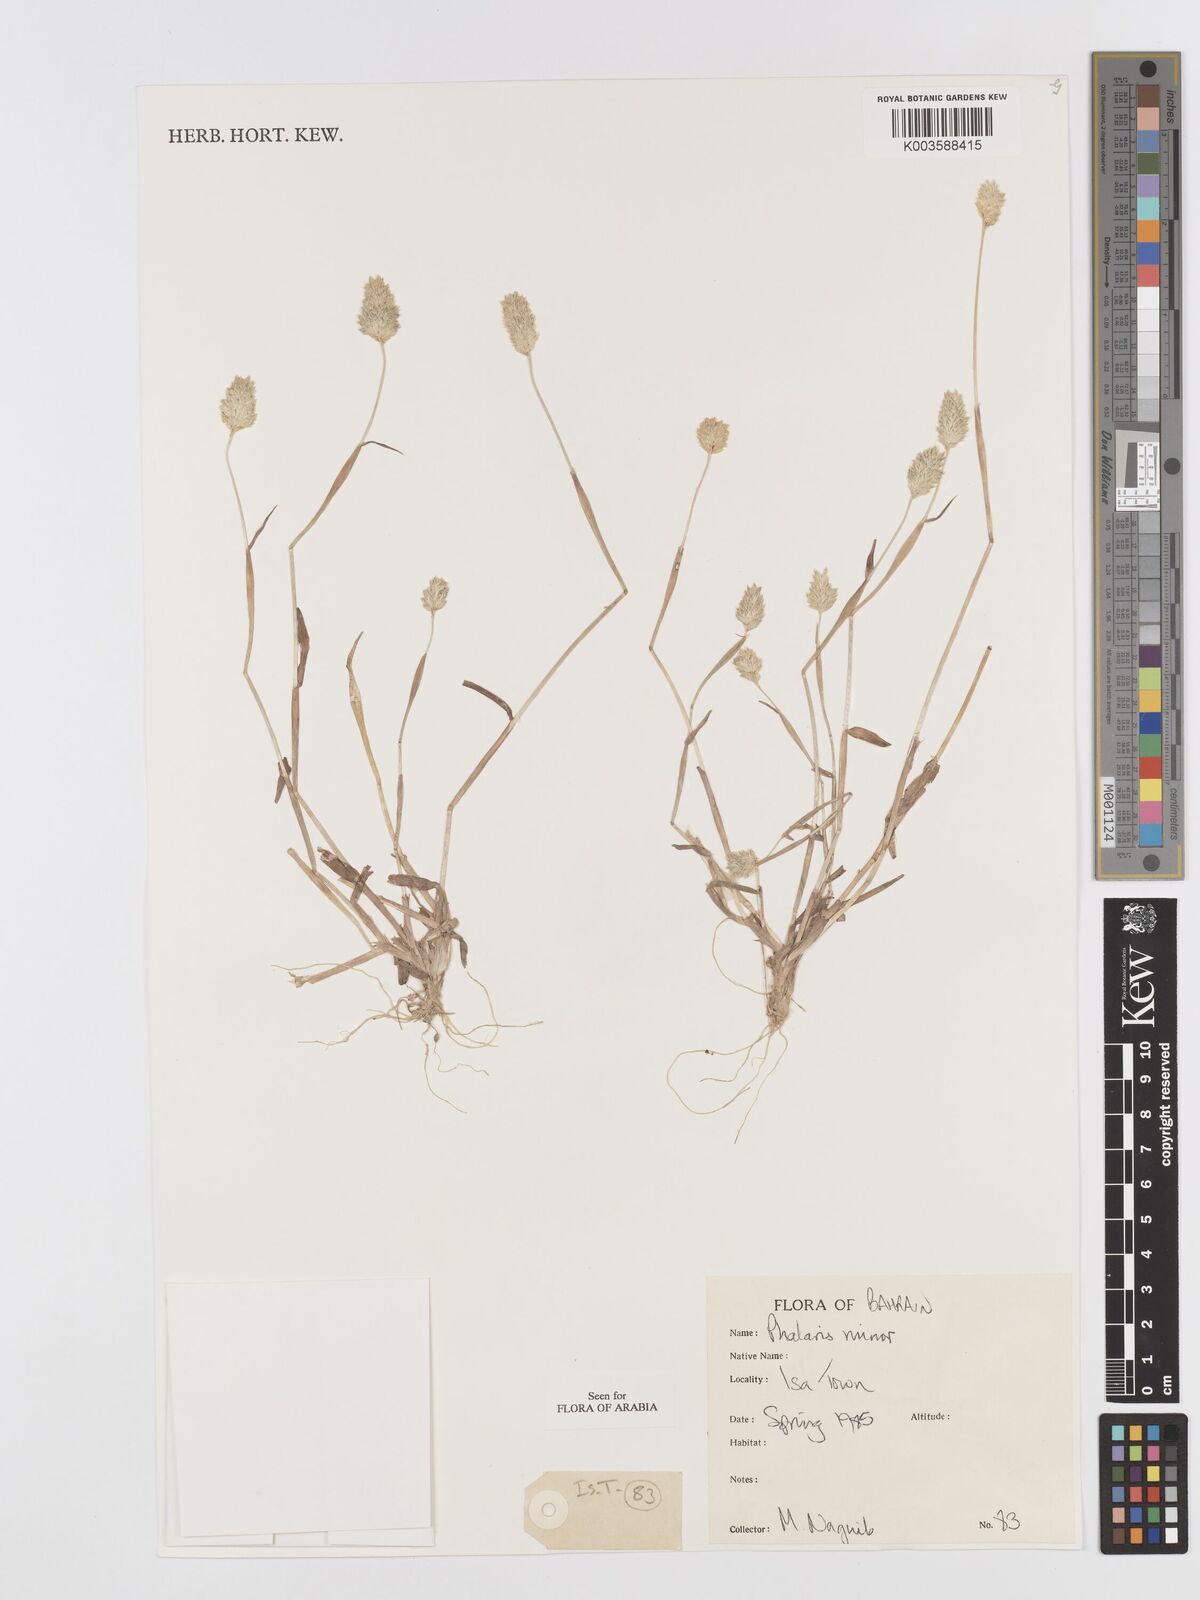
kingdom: Plantae
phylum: Tracheophyta
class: Liliopsida
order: Poales
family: Poaceae
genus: Phalaris
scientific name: Phalaris minor
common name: Littleseed canarygrass
